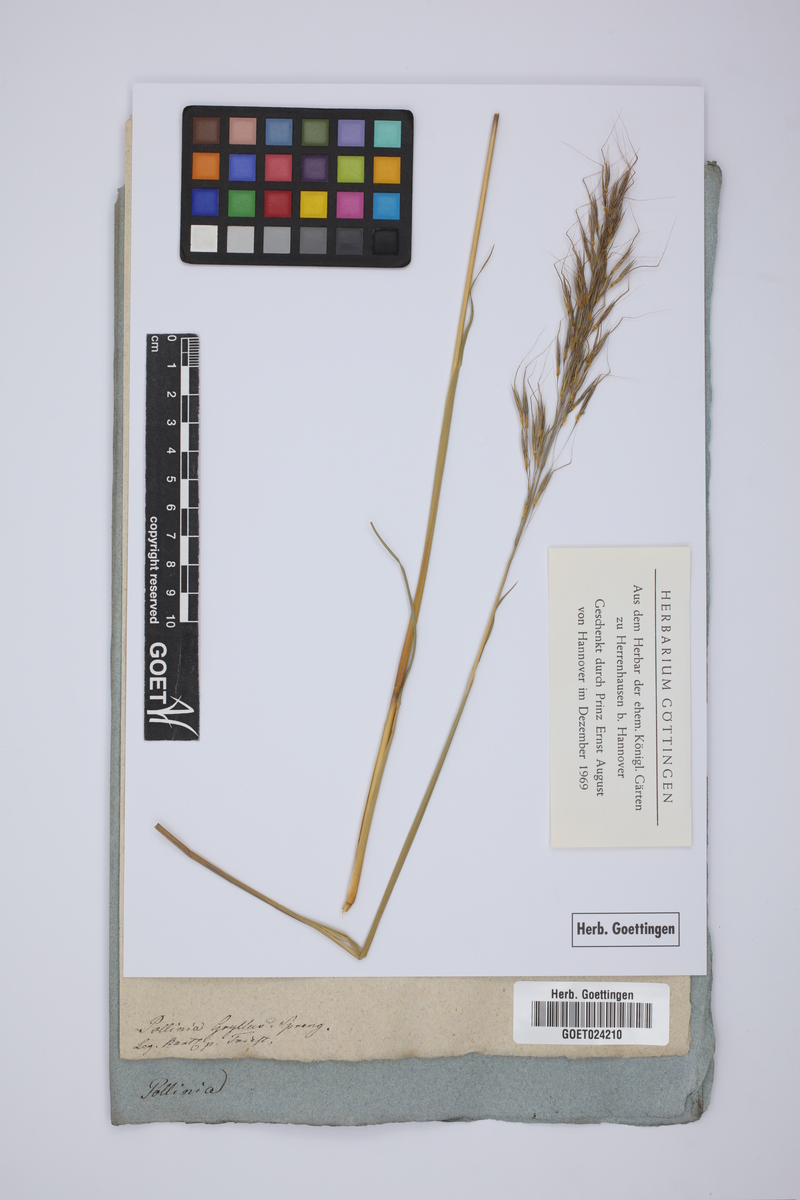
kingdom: Plantae
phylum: Tracheophyta
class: Liliopsida
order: Poales
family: Poaceae
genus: Chrysopogon
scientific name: Chrysopogon gryllus
